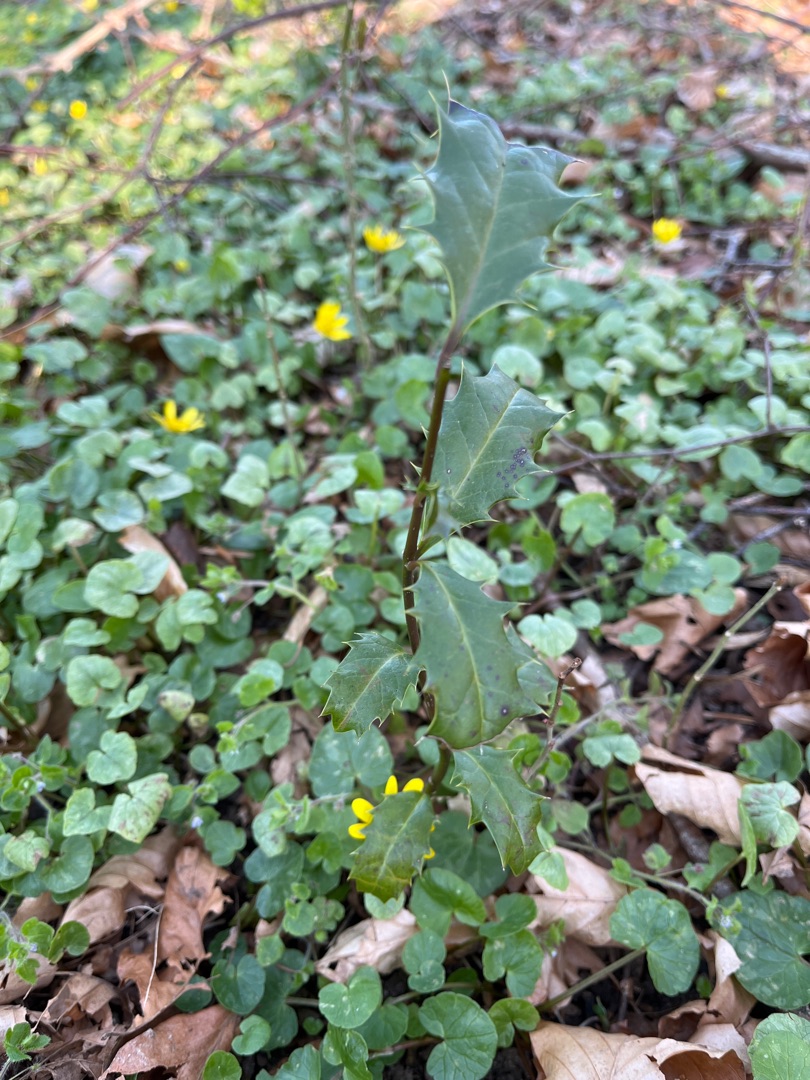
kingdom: Plantae
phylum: Tracheophyta
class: Magnoliopsida
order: Aquifoliales
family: Aquifoliaceae
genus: Ilex
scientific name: Ilex aquifolium
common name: Kristtorn
